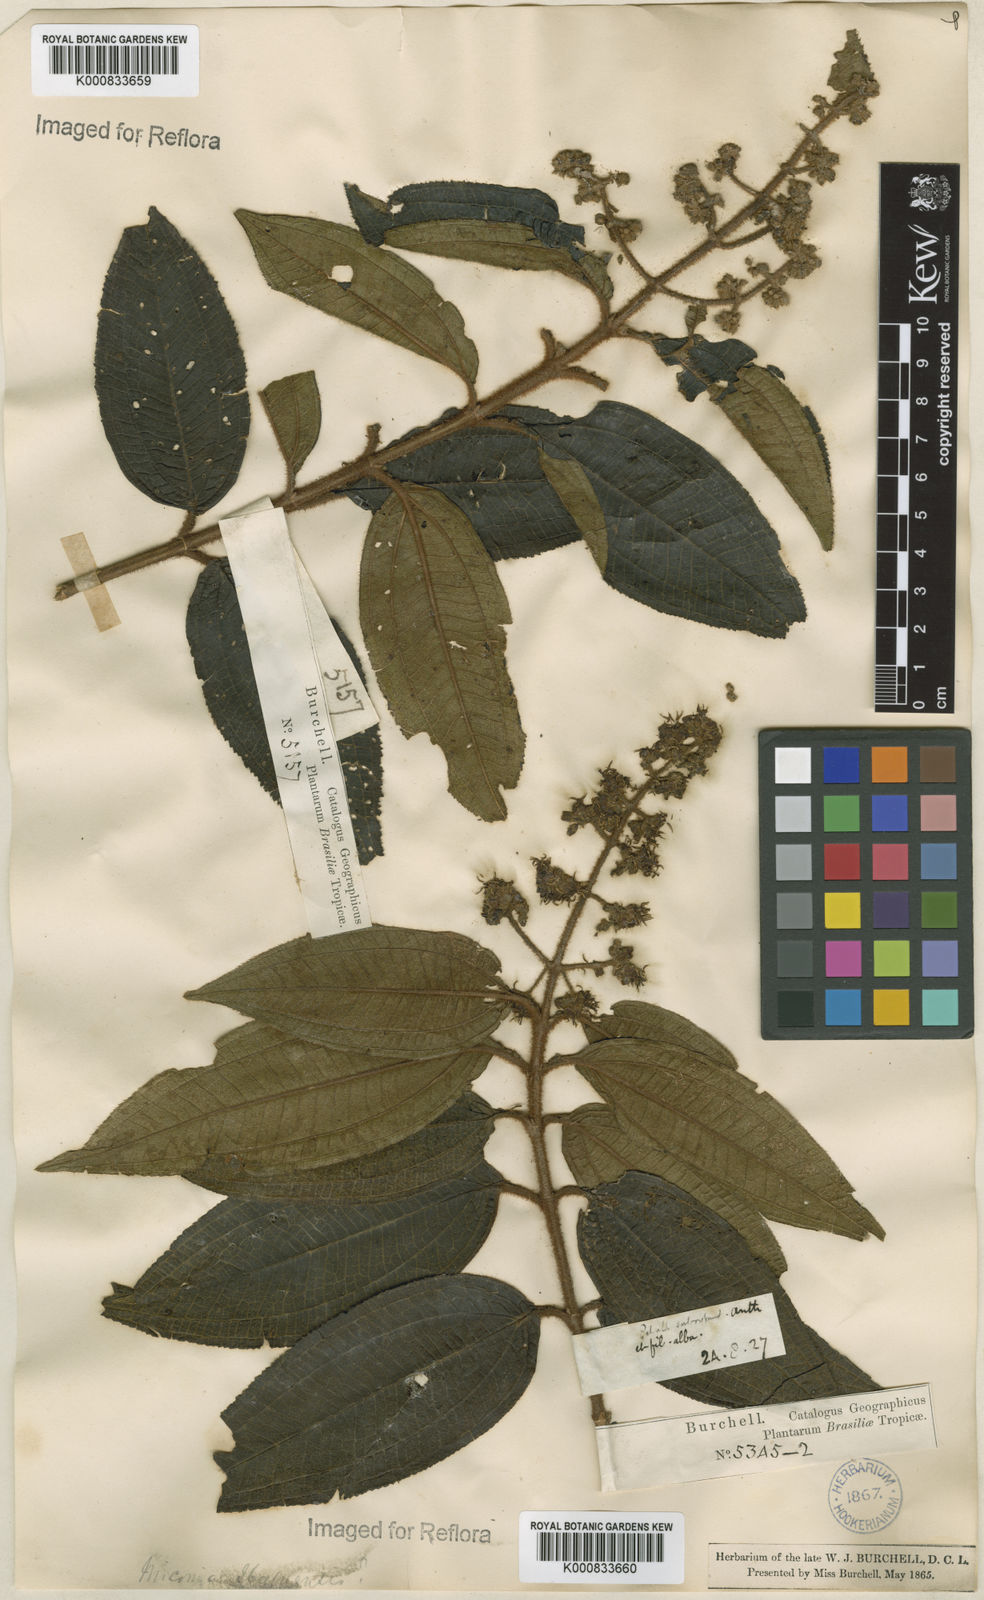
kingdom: Plantae
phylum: Tracheophyta
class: Magnoliopsida
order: Myrtales
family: Melastomataceae
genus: Miconia
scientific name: Miconia ibaguensis
